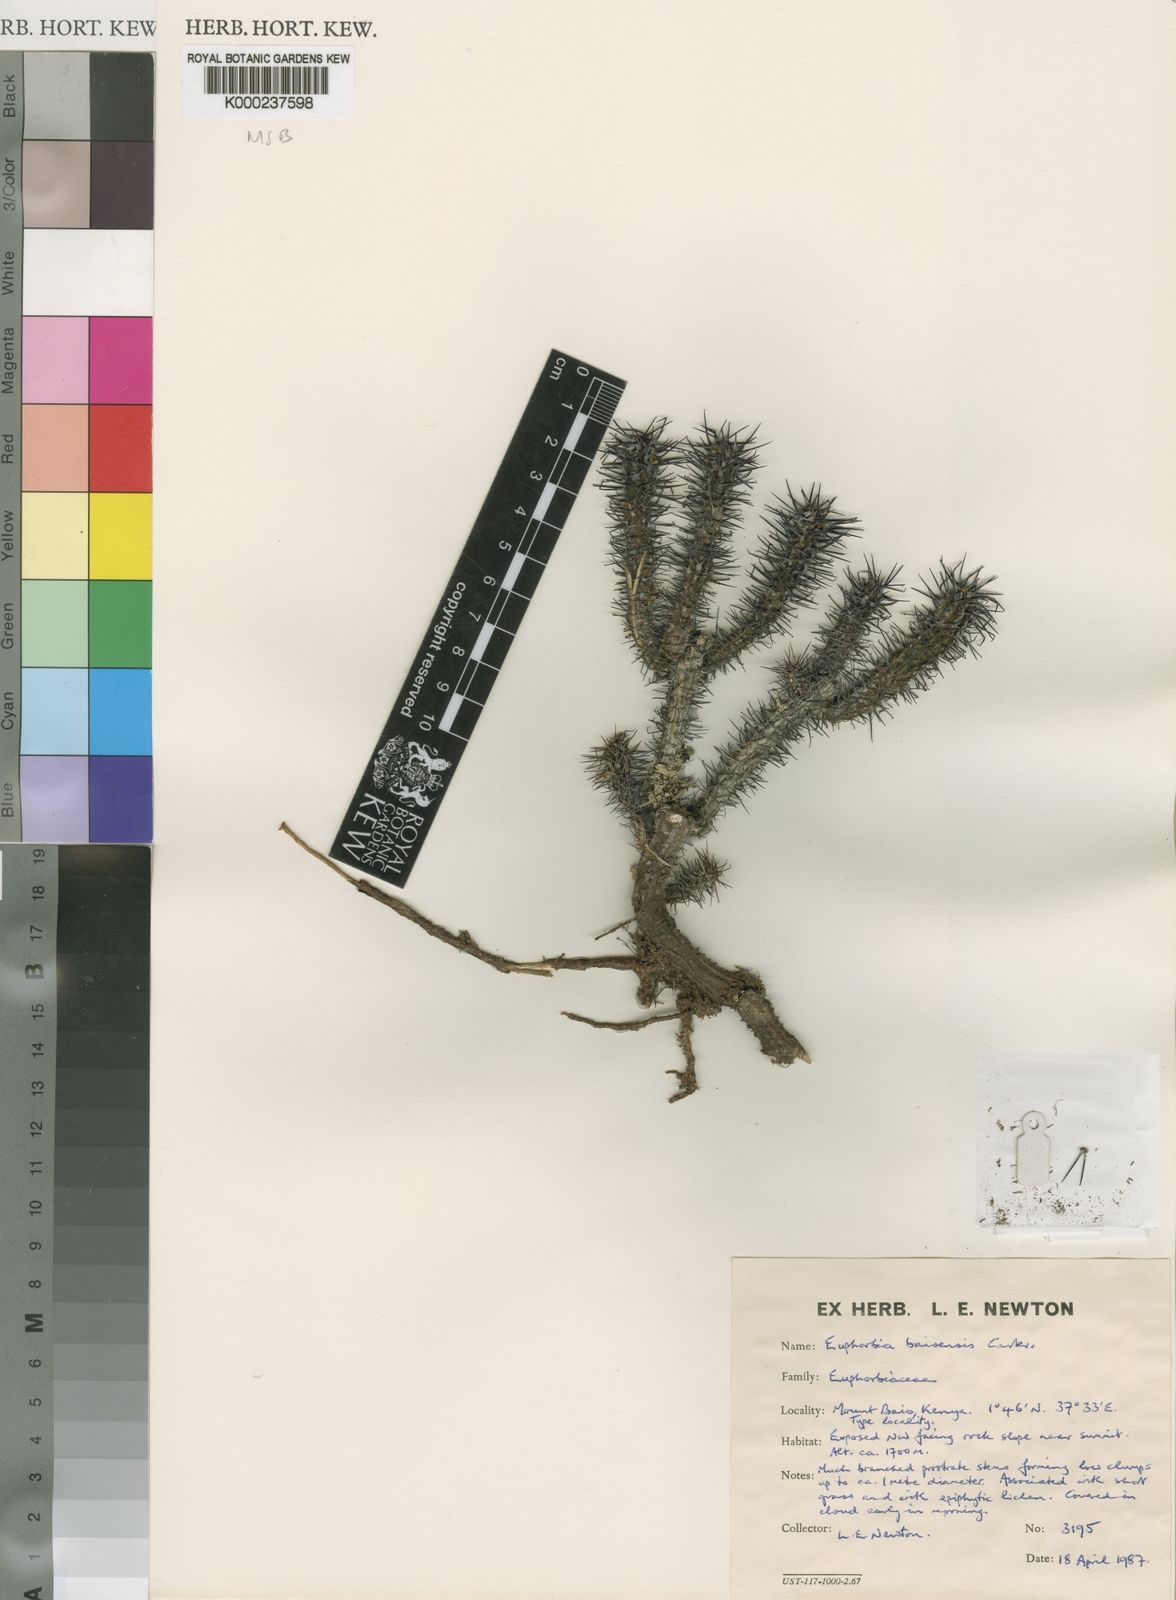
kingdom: Plantae
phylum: Tracheophyta
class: Magnoliopsida
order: Malpighiales
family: Euphorbiaceae
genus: Euphorbia
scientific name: Euphorbia baioensis
